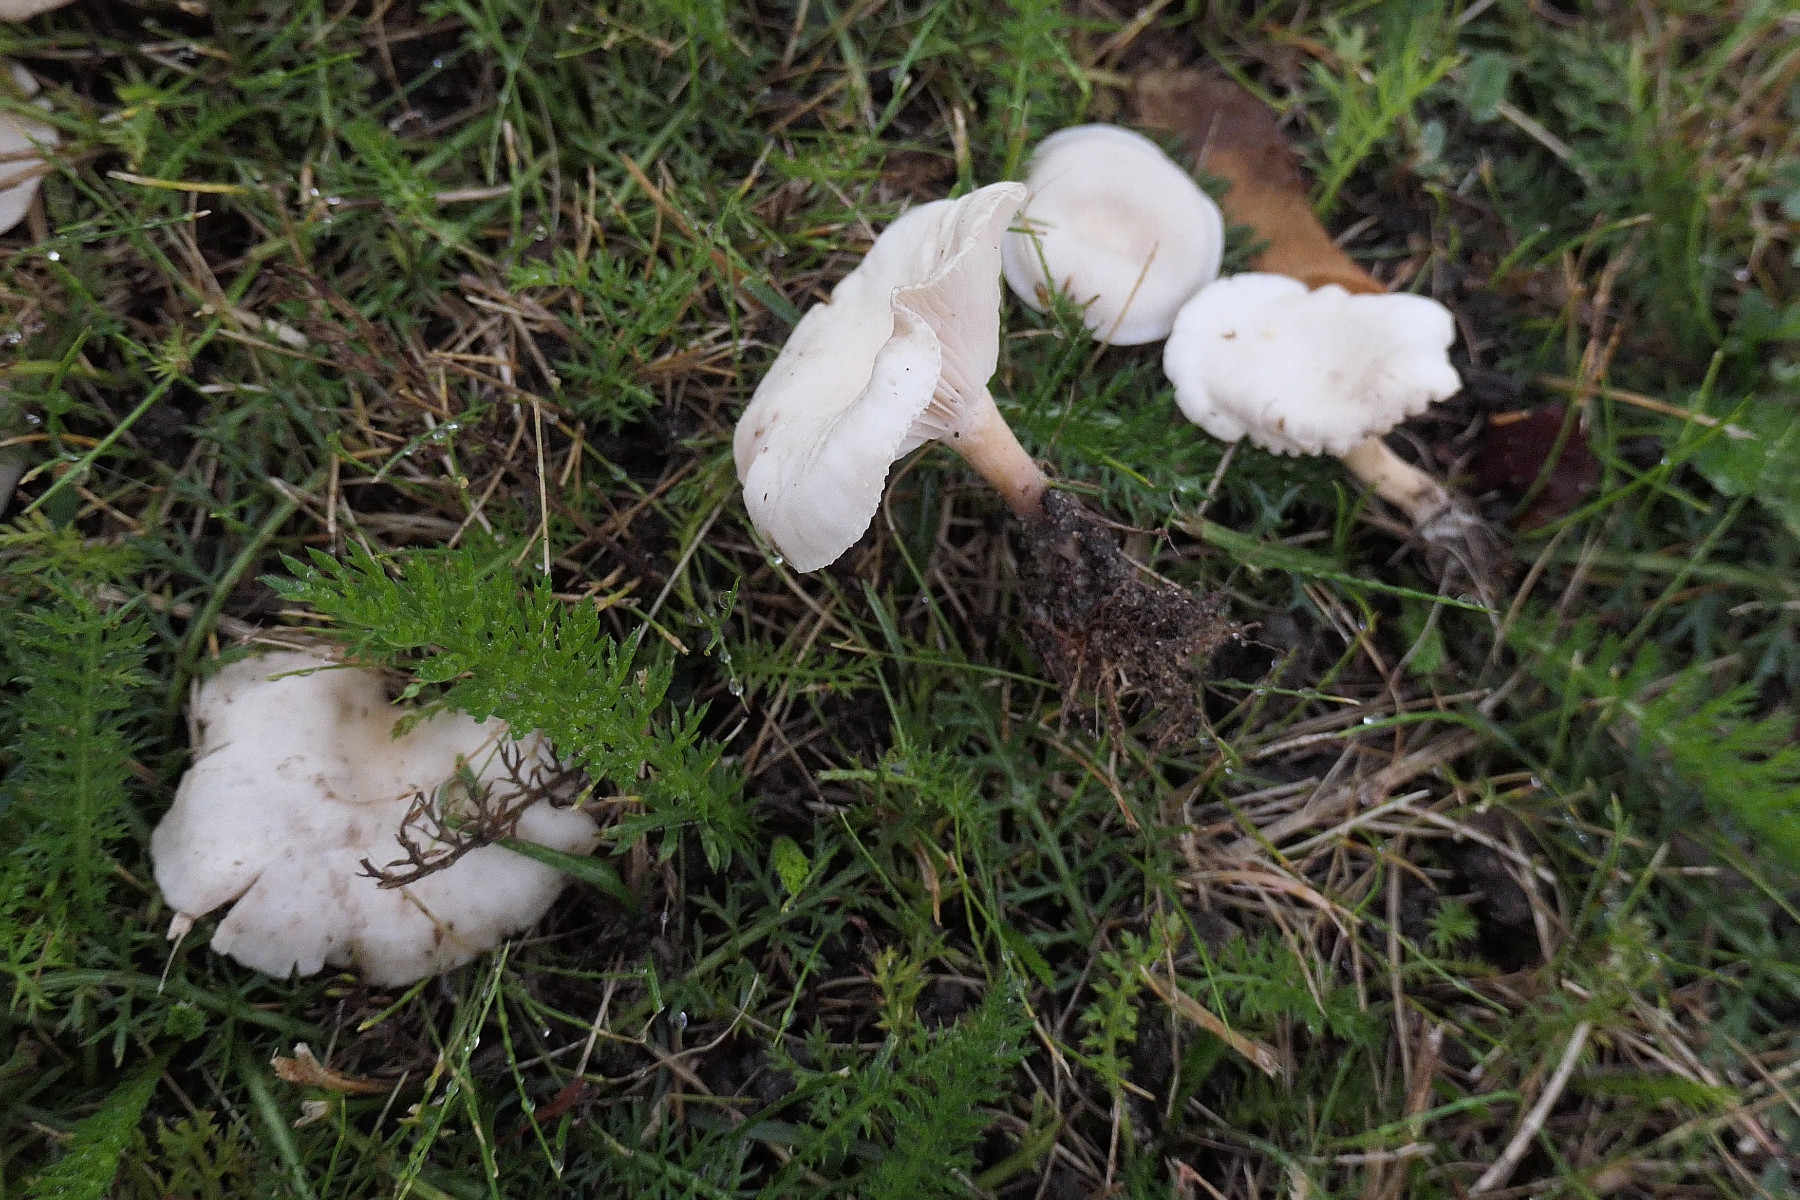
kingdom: Fungi
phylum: Basidiomycota
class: Agaricomycetes
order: Agaricales
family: Tricholomataceae
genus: Clitocybe
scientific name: Clitocybe agrestis
